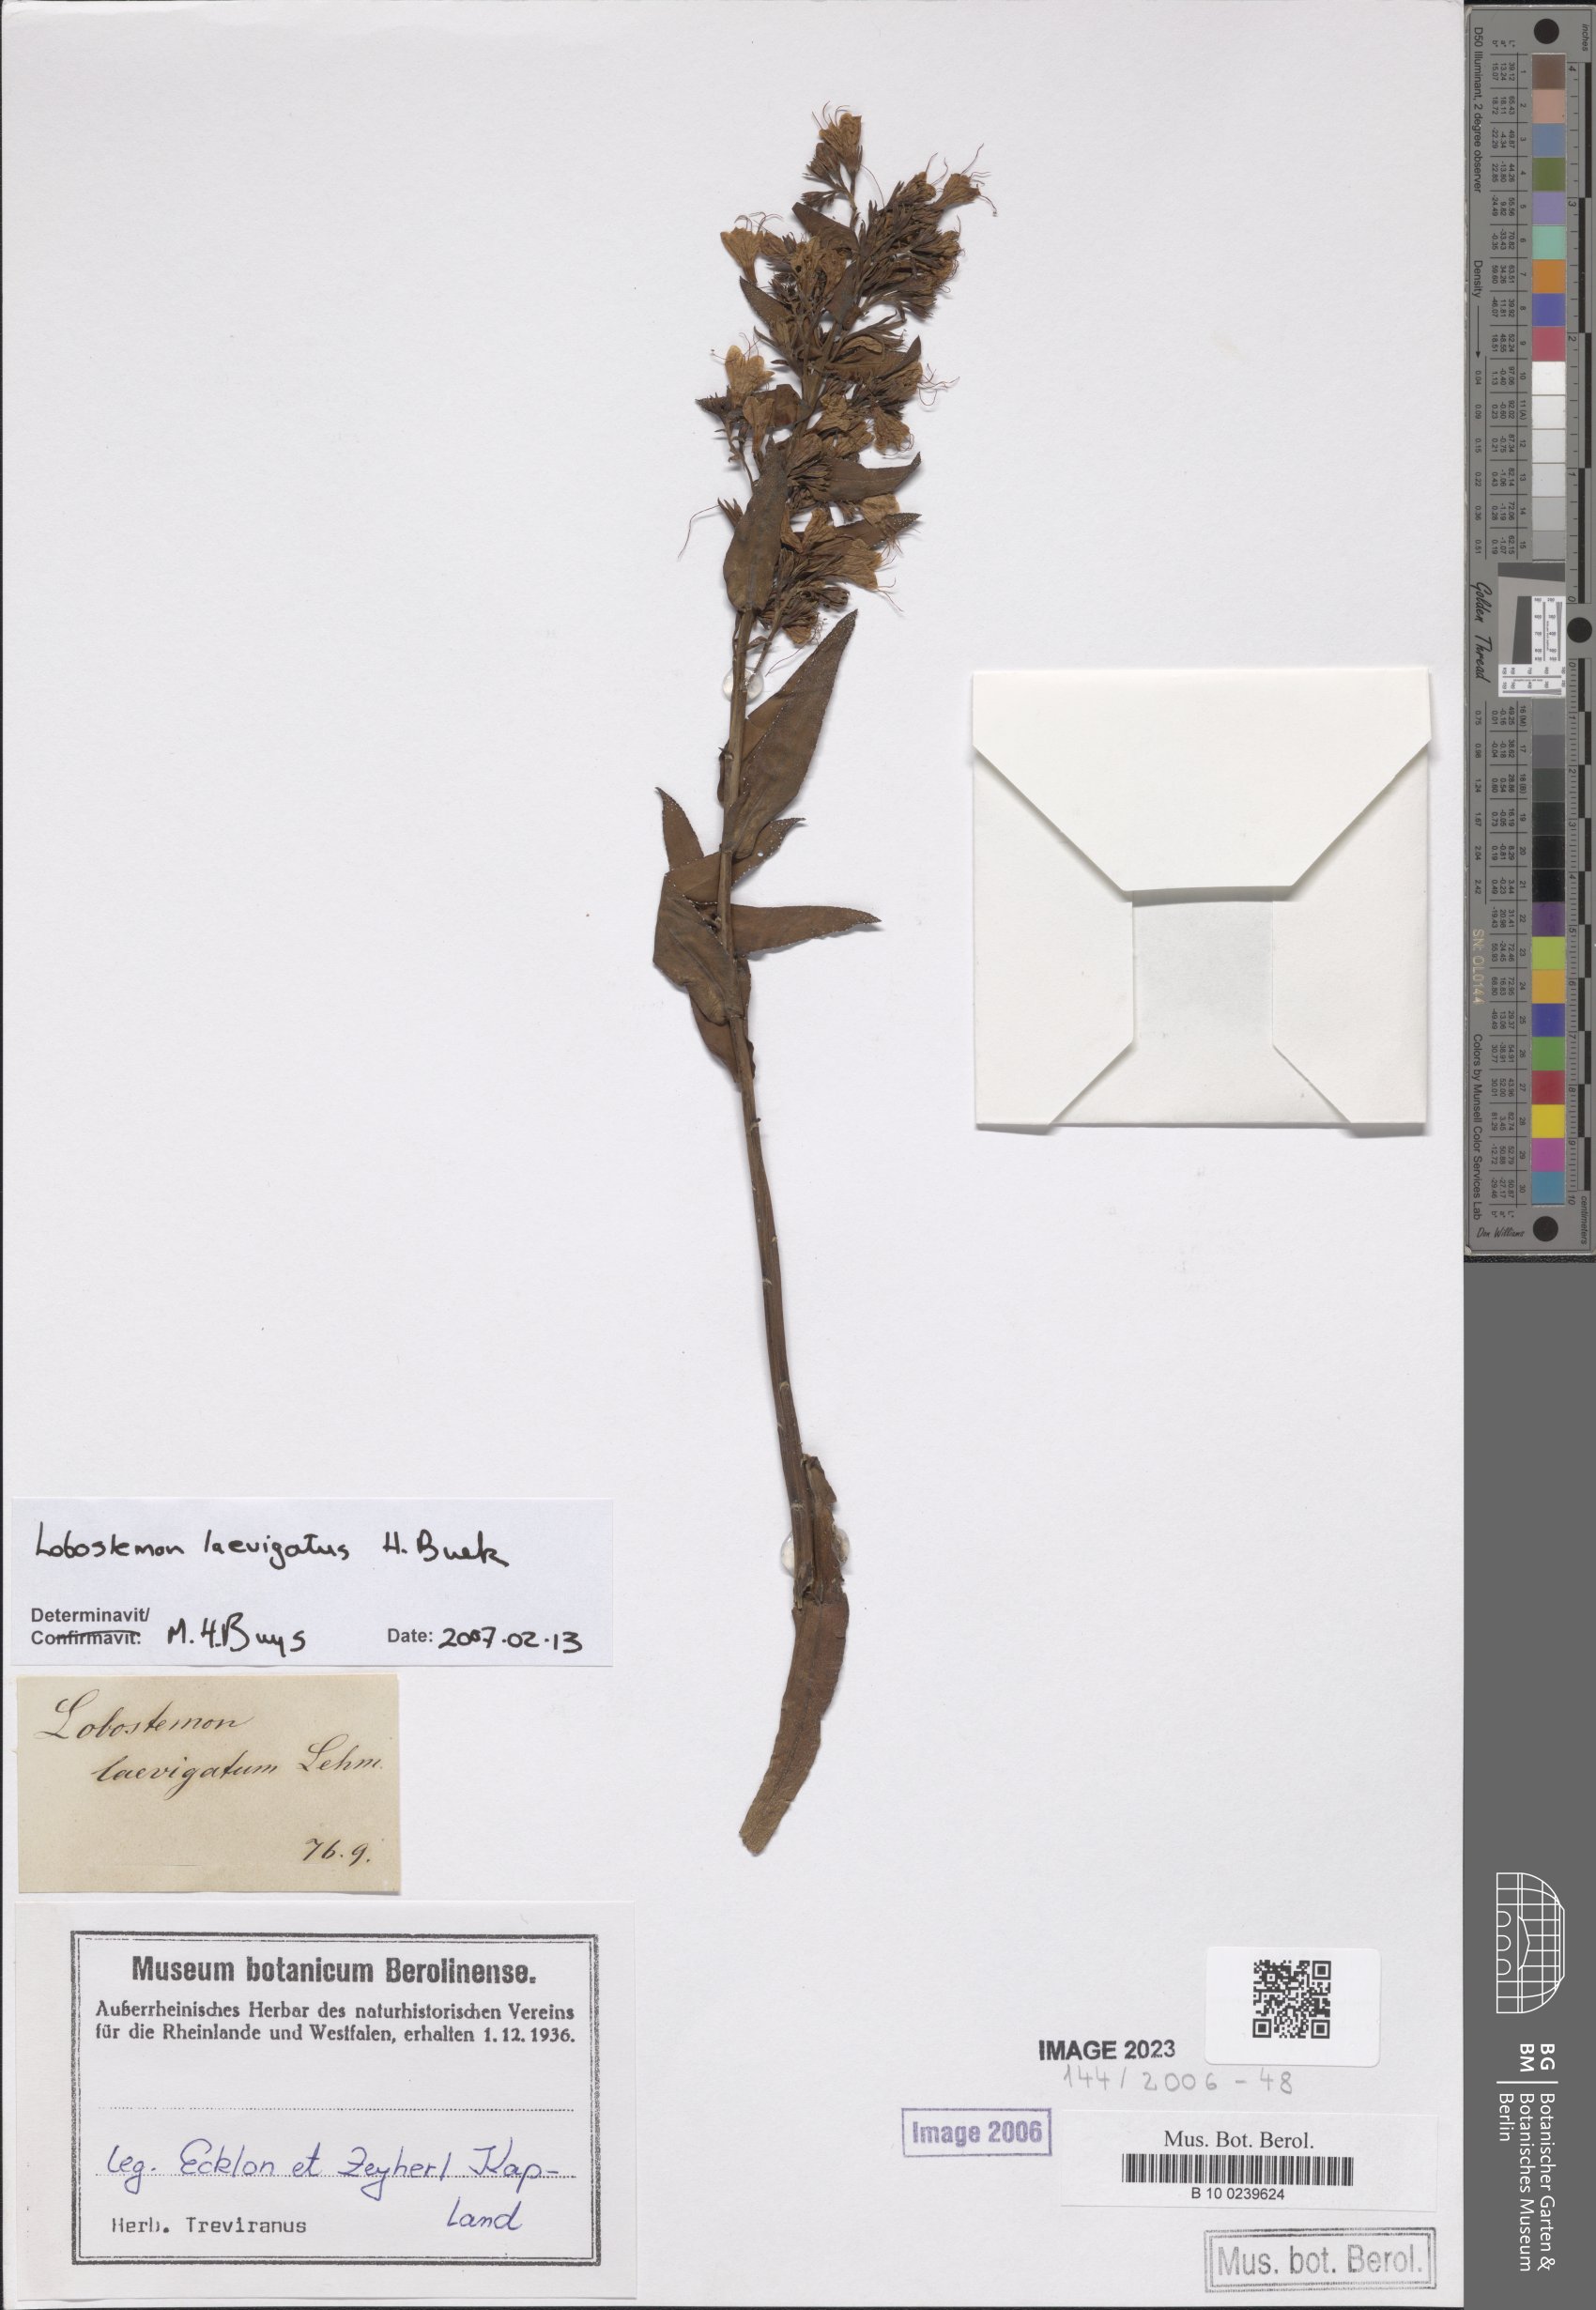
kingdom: Plantae
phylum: Tracheophyta
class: Magnoliopsida
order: Boraginales
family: Boraginaceae
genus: Lobostemon
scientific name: Lobostemon laevigatus
